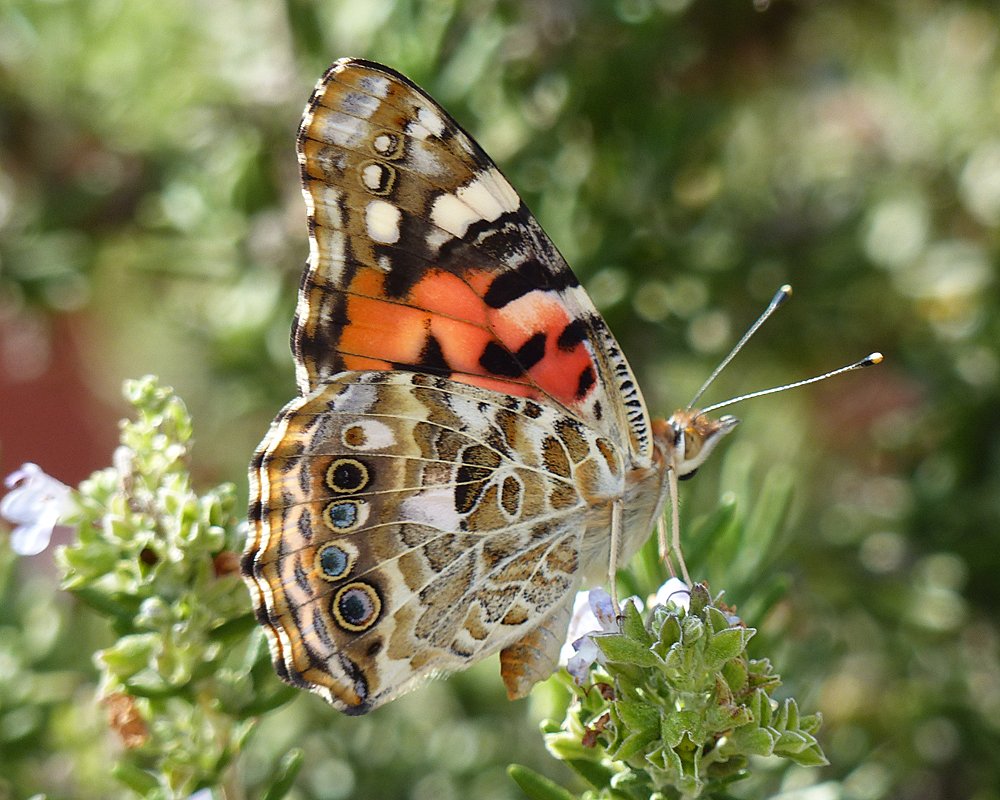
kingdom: Animalia
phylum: Arthropoda
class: Insecta
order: Lepidoptera
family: Nymphalidae
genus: Vanessa
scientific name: Vanessa cardui
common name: Painted Lady
